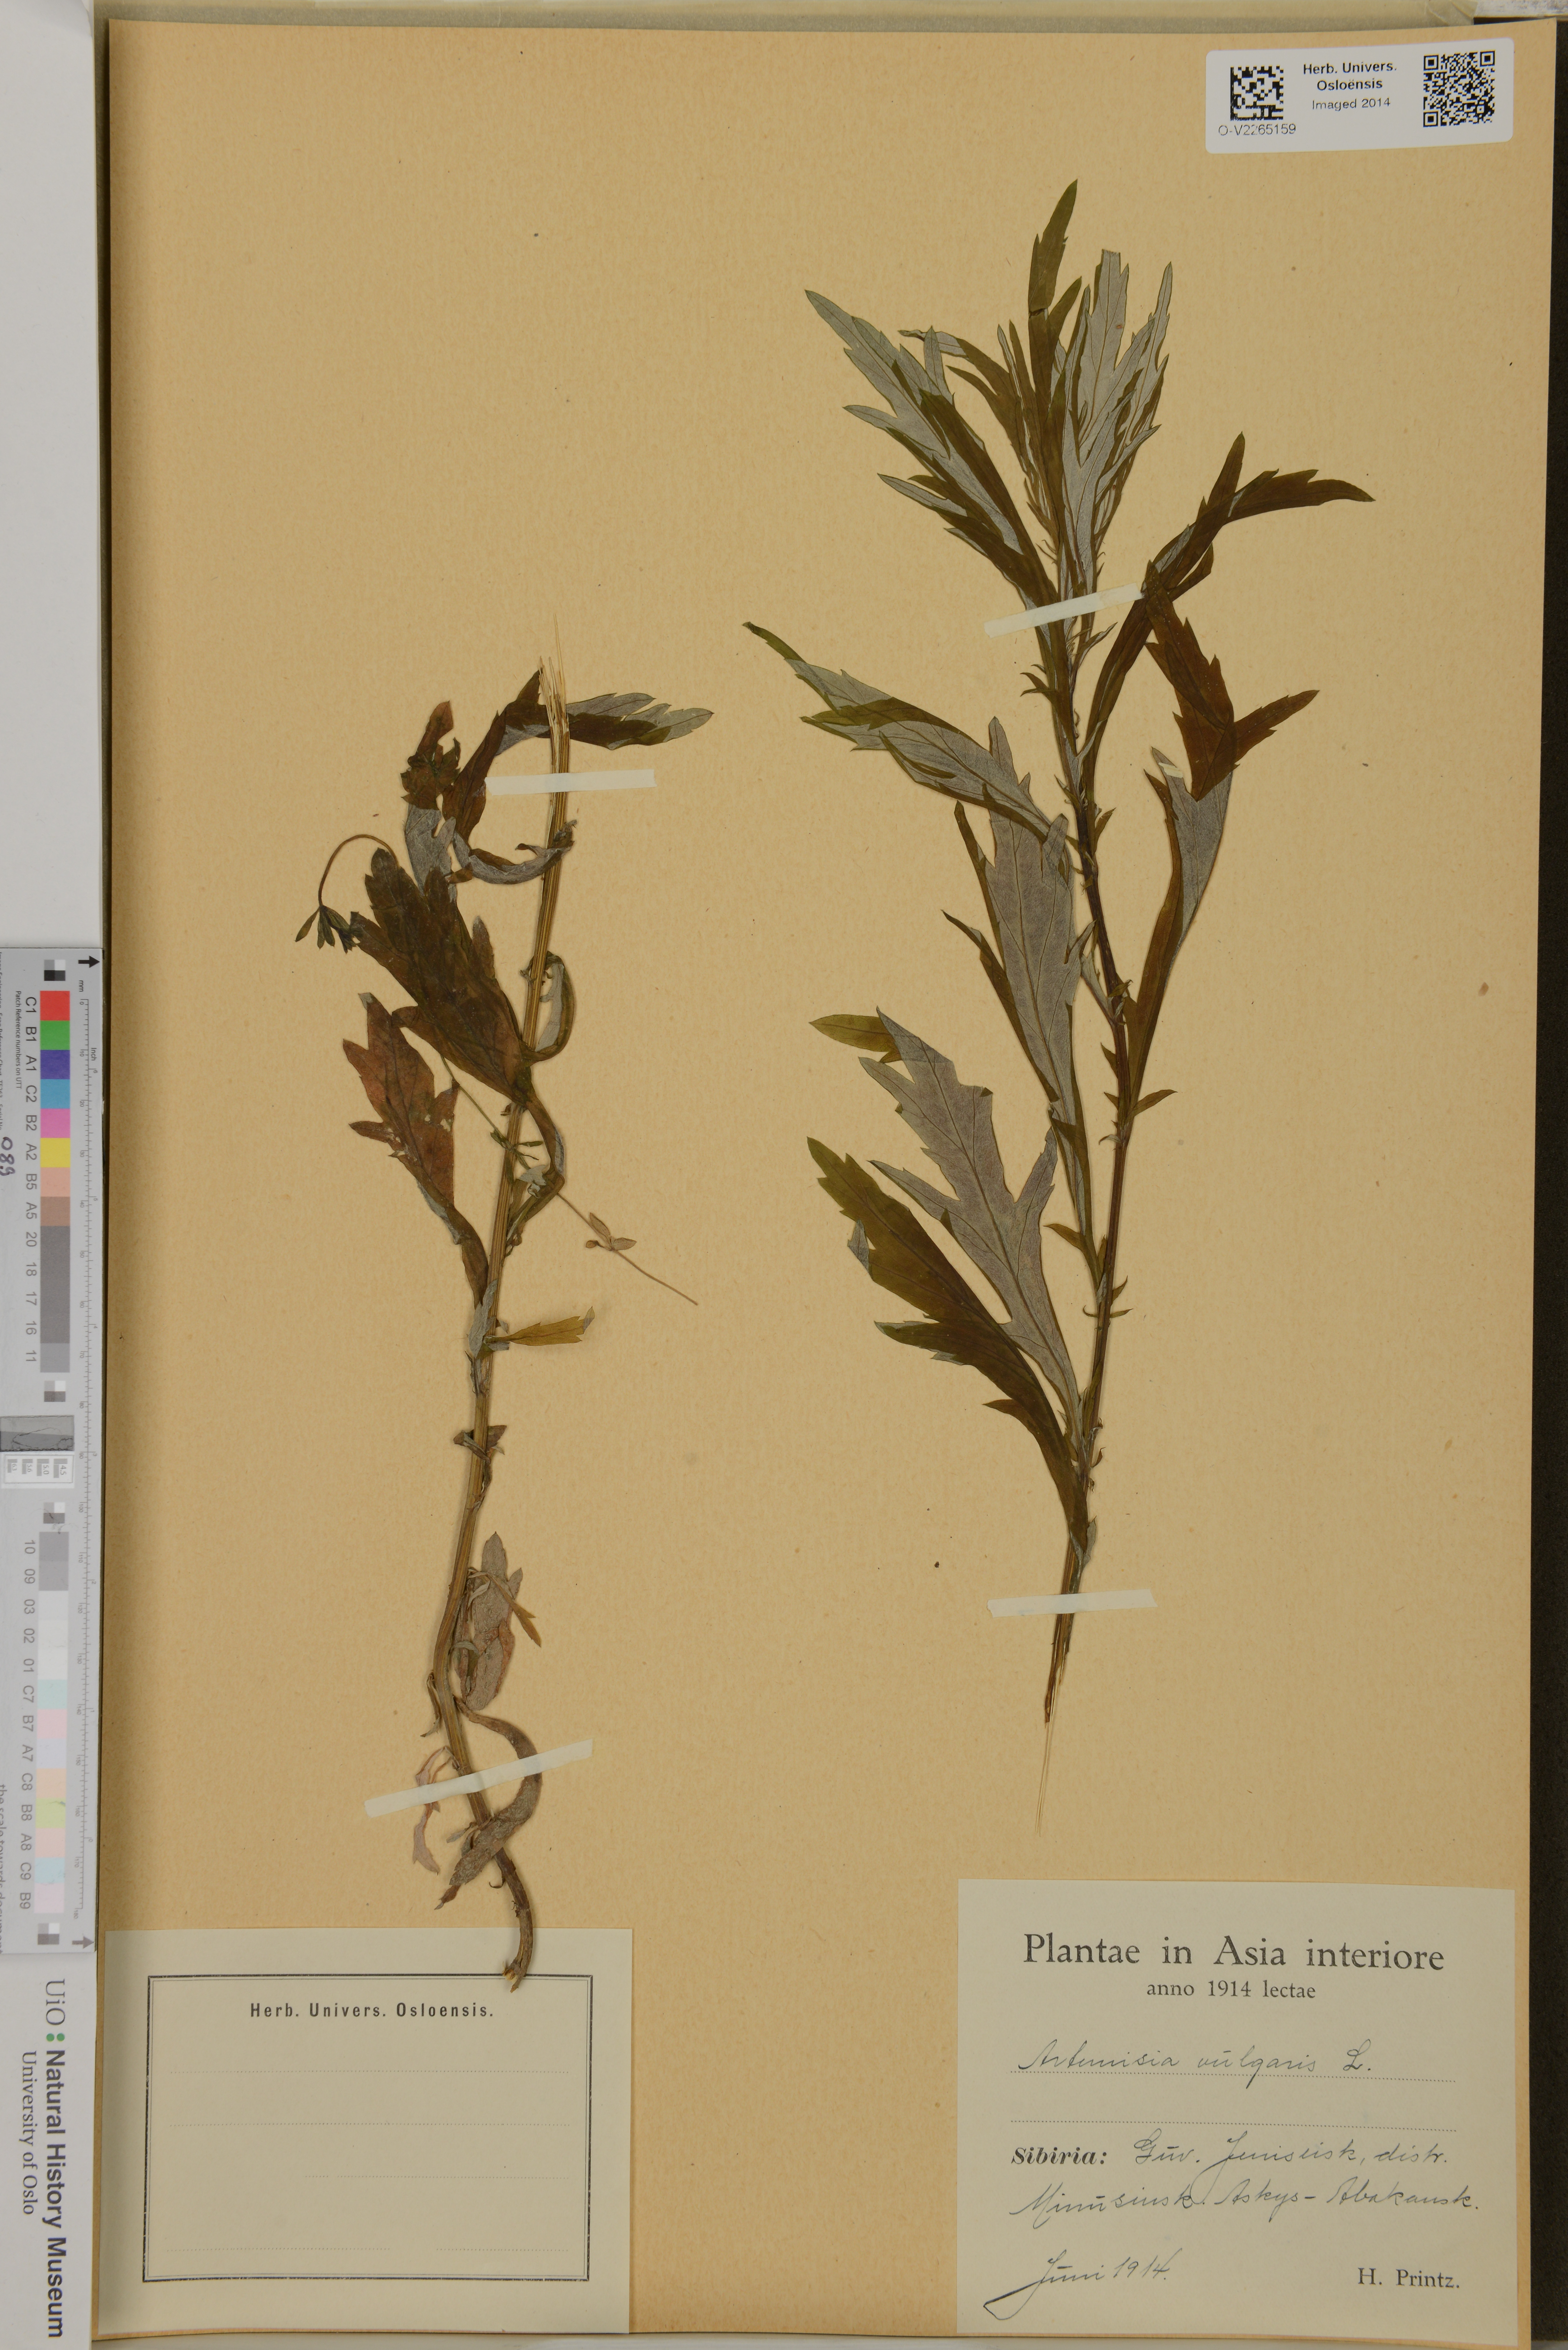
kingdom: Plantae
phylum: Tracheophyta
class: Magnoliopsida
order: Asterales
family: Asteraceae
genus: Artemisia
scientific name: Artemisia vulgaris
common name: Mugwort
